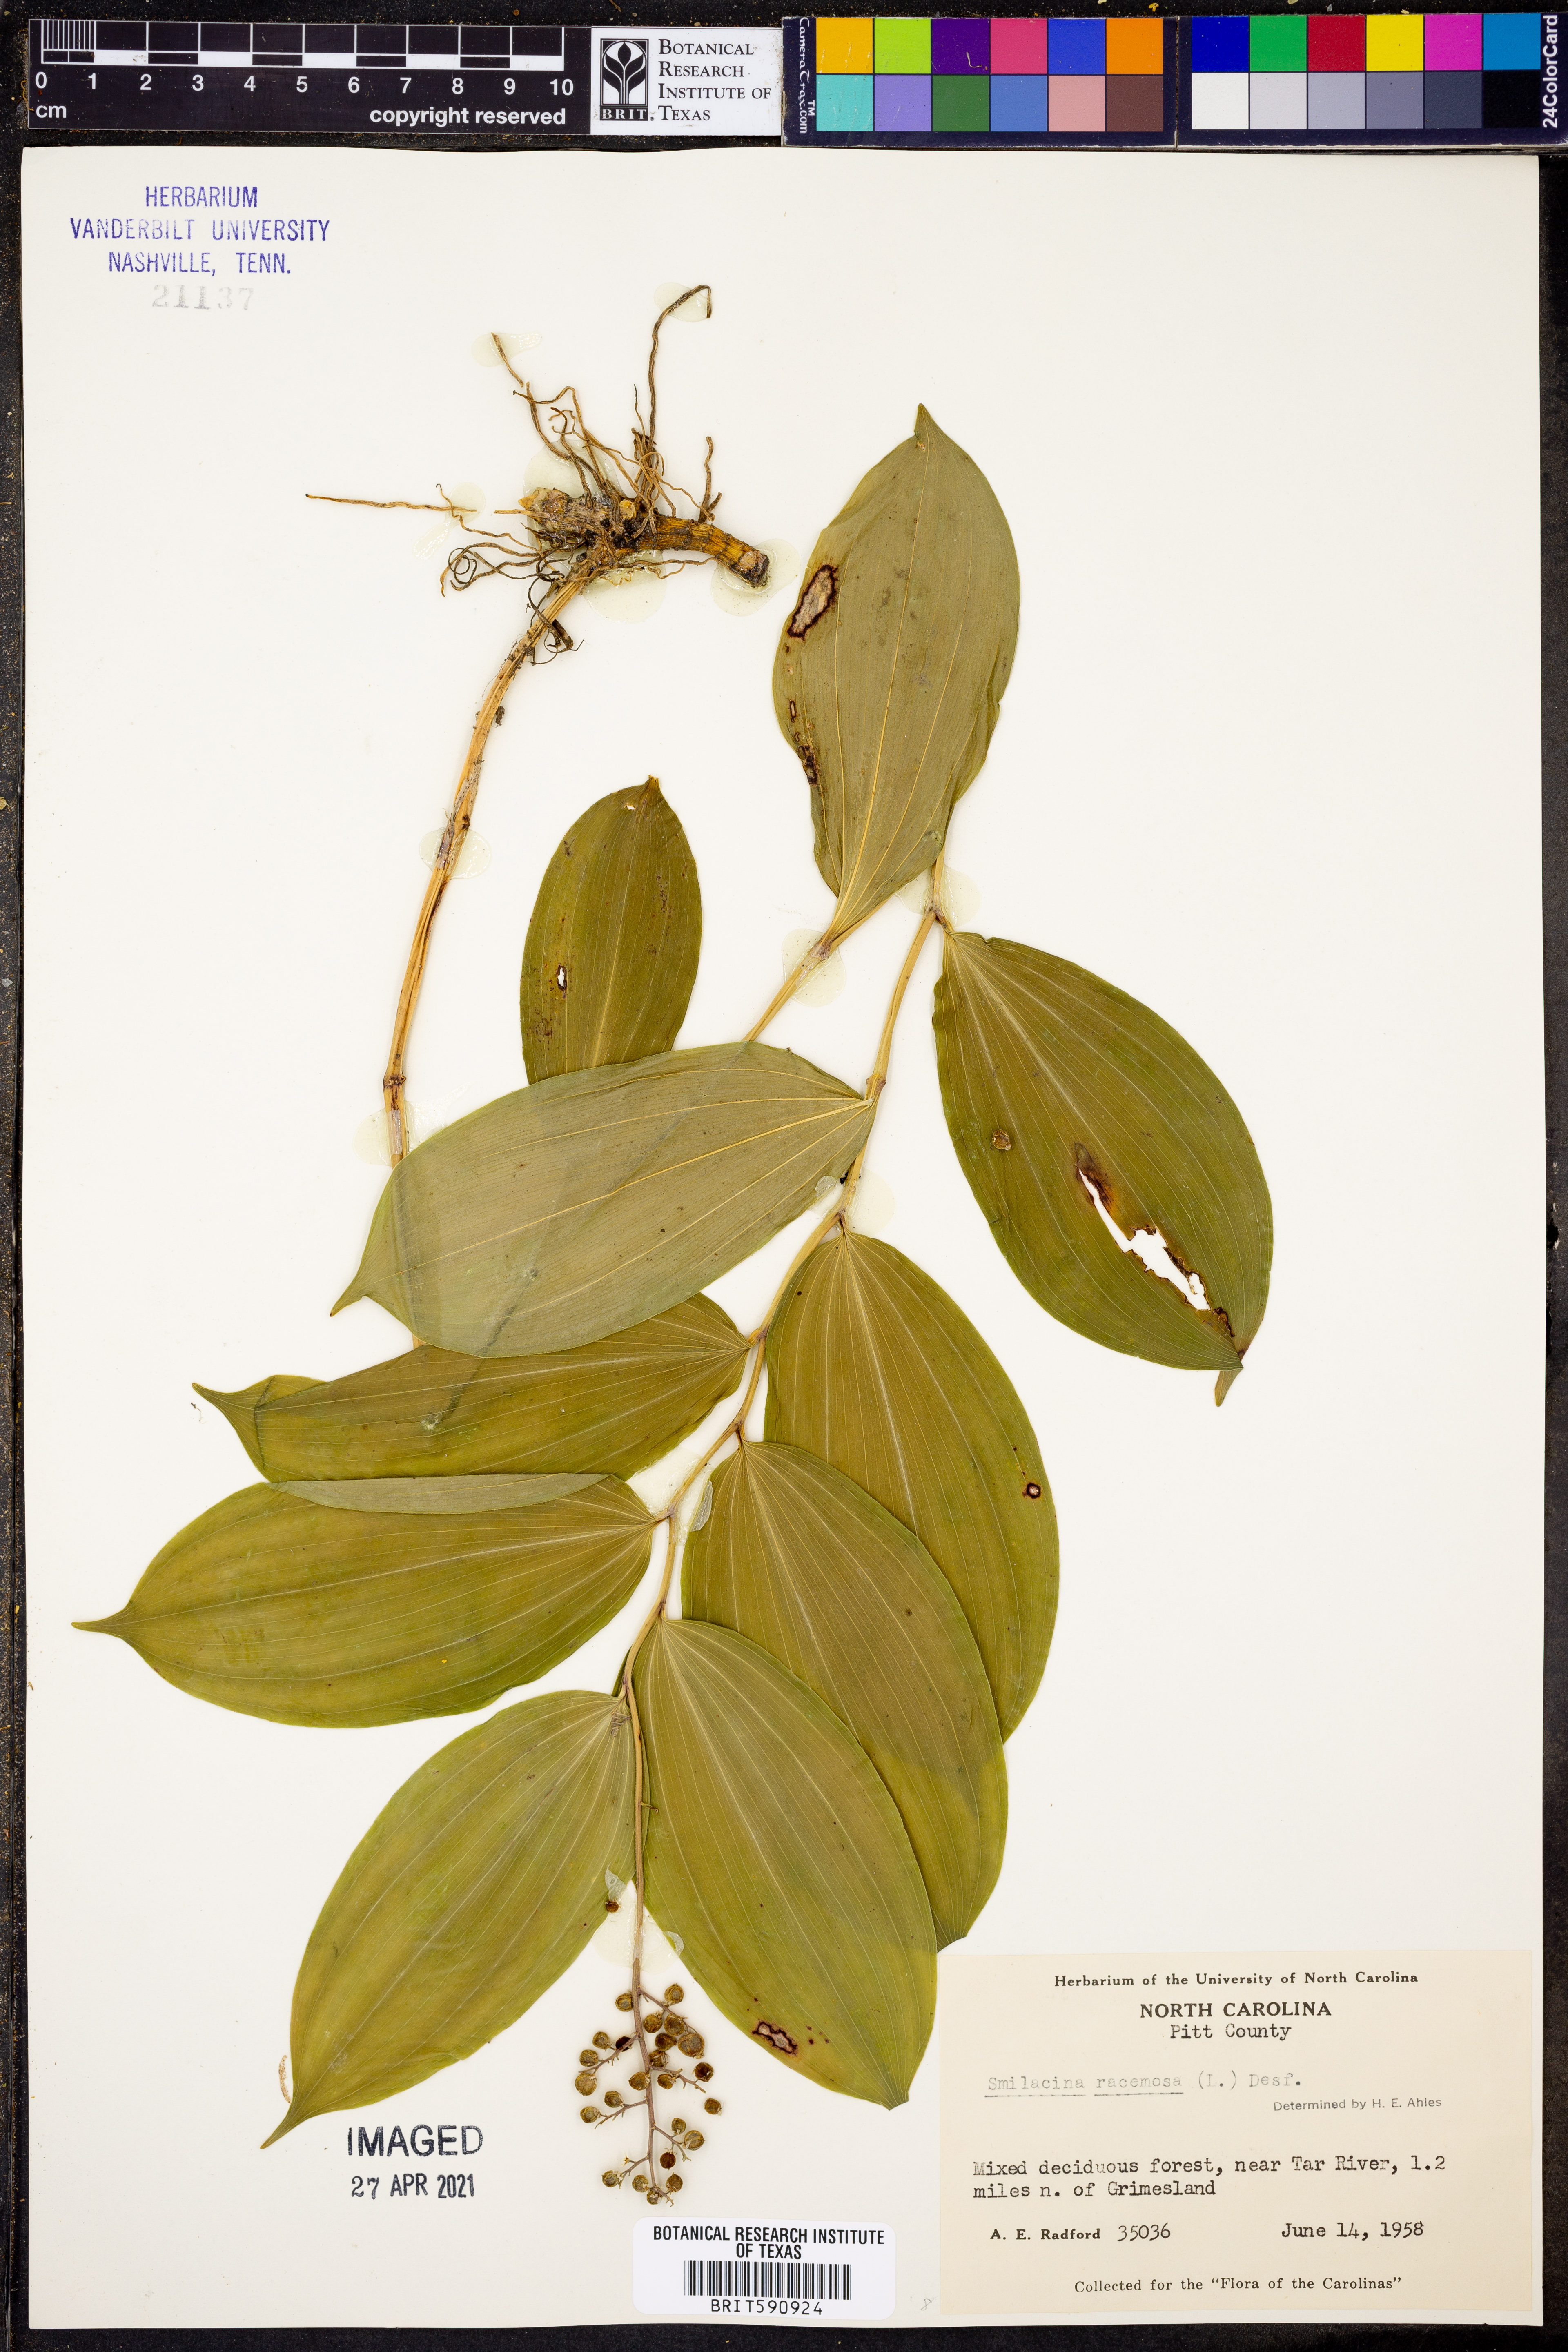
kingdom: Plantae
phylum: Tracheophyta
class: Liliopsida
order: Asparagales
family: Asparagaceae
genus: Maianthemum
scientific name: Maianthemum racemosum
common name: False spikenard
